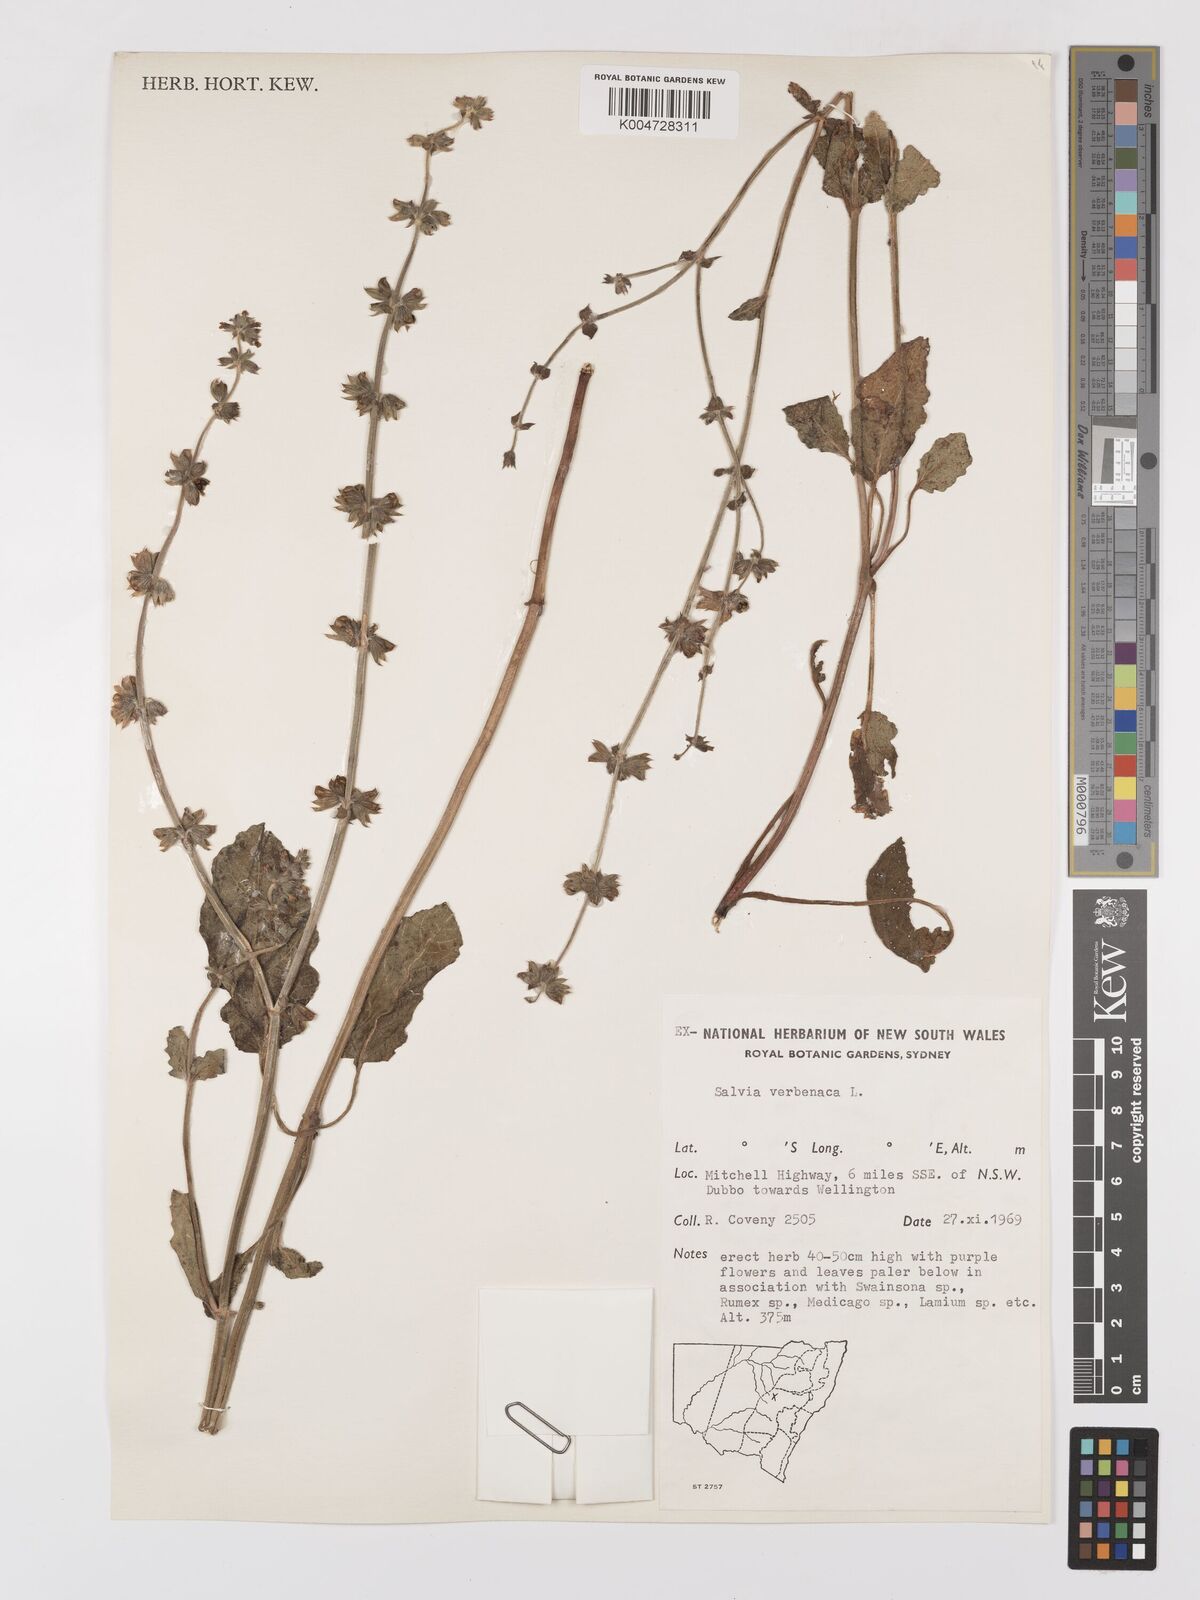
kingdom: Plantae
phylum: Tracheophyta
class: Magnoliopsida
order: Lamiales
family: Lamiaceae
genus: Salvia
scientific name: Salvia verbenaca
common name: Wild clary
